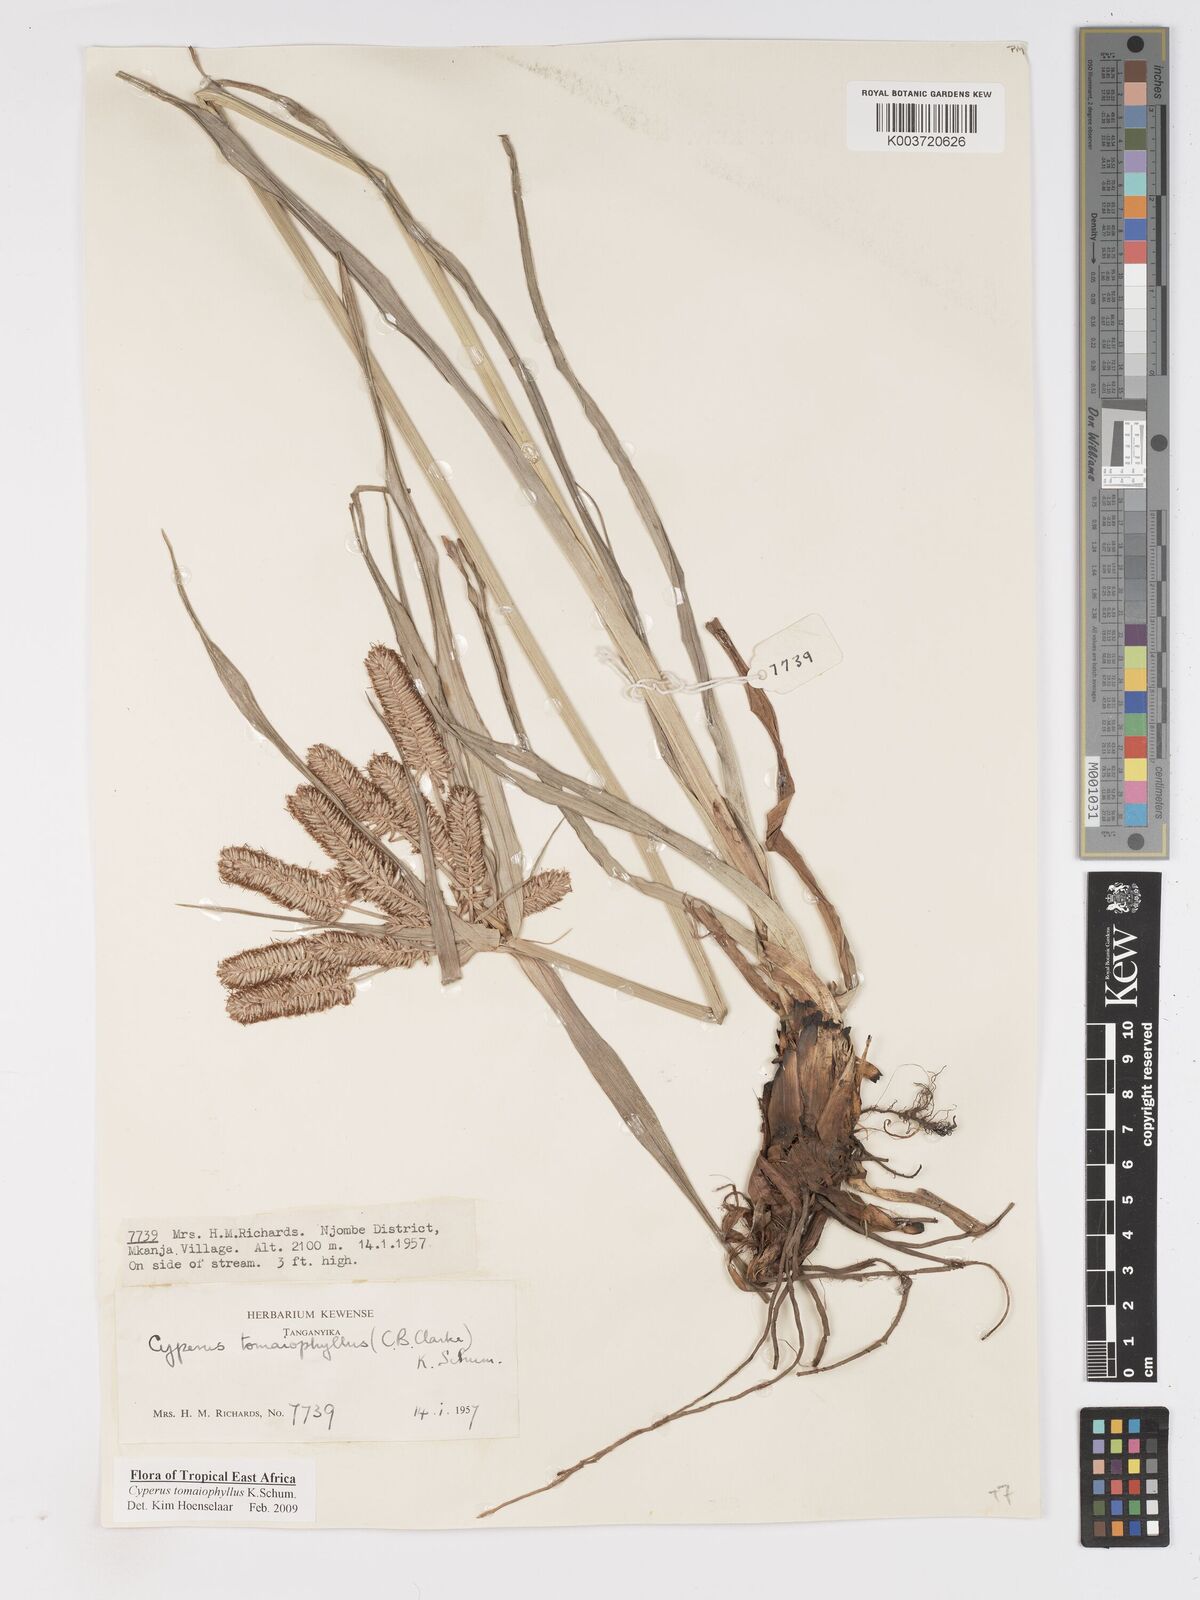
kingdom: Plantae
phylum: Tracheophyta
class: Liliopsida
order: Poales
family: Cyperaceae
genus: Cyperus
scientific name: Cyperus tomaiophyllus
